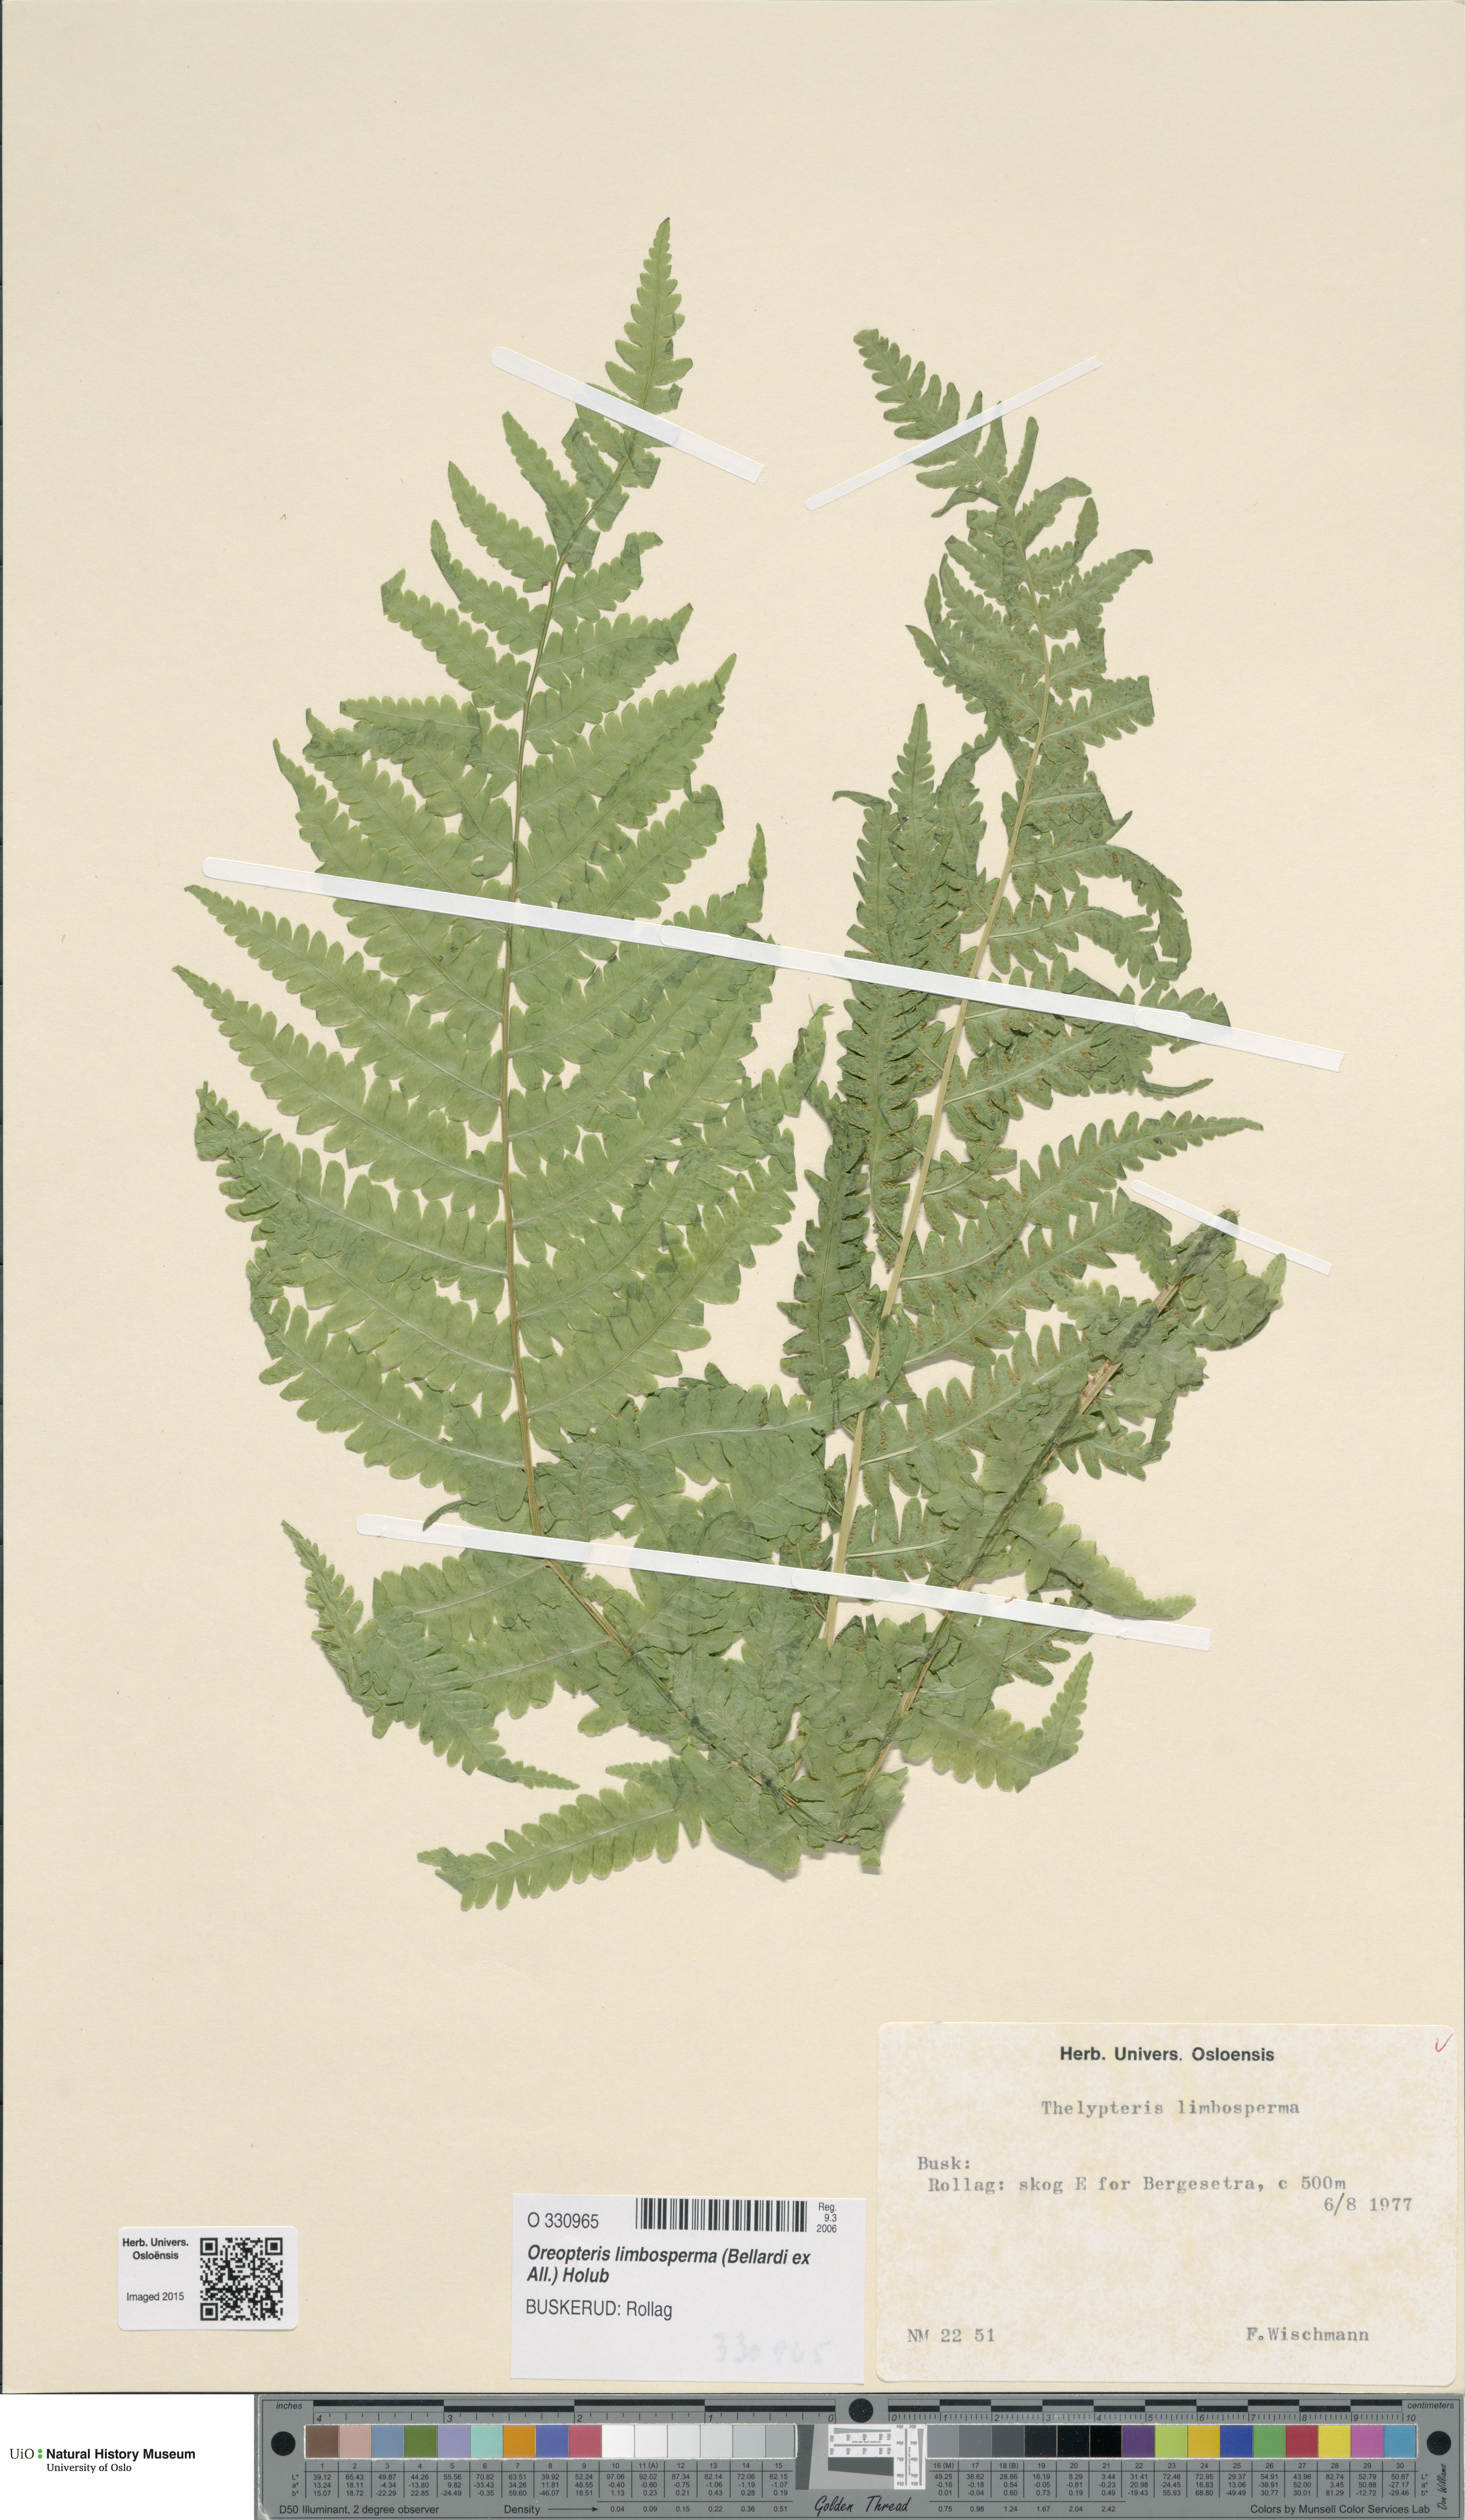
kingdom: Plantae
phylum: Tracheophyta
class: Polypodiopsida
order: Polypodiales
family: Thelypteridaceae
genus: Oreopteris
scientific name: Oreopteris limbosperma
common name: Lemon-scented fern
